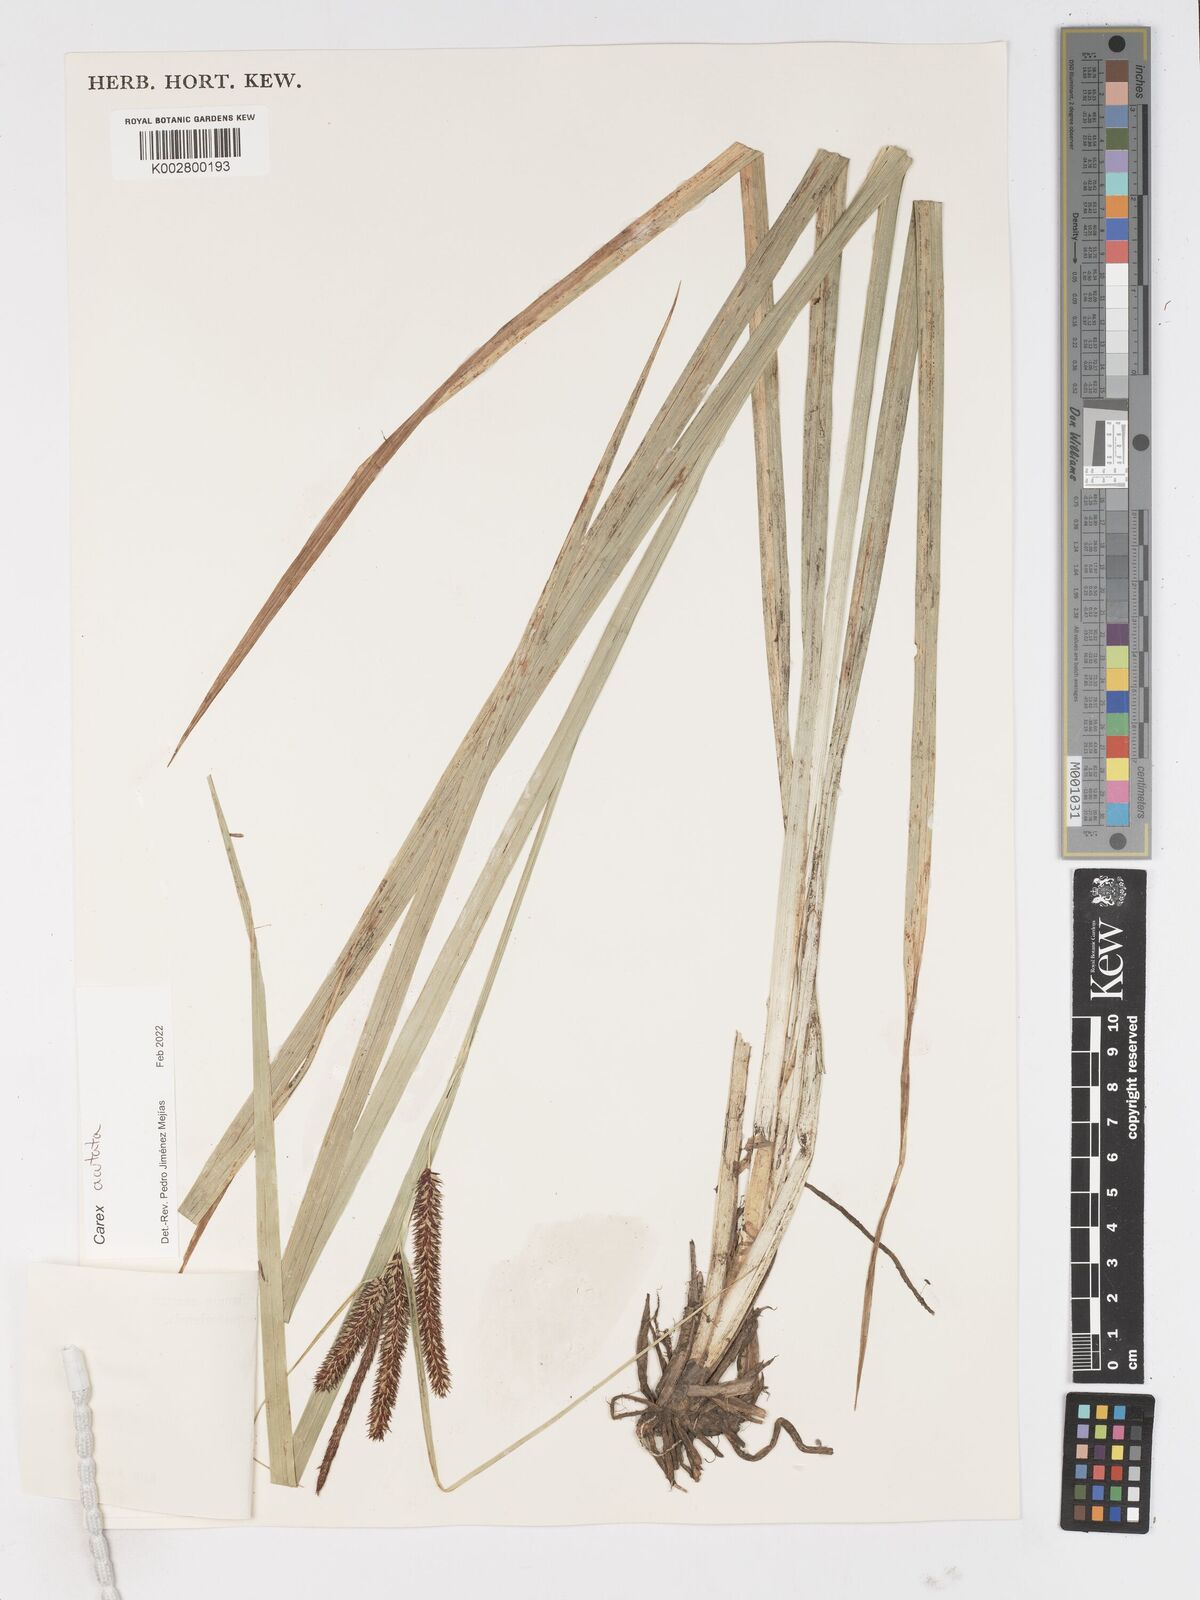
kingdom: Plantae
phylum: Tracheophyta
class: Liliopsida
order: Poales
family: Cyperaceae
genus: Carex
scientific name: Carex acutata
